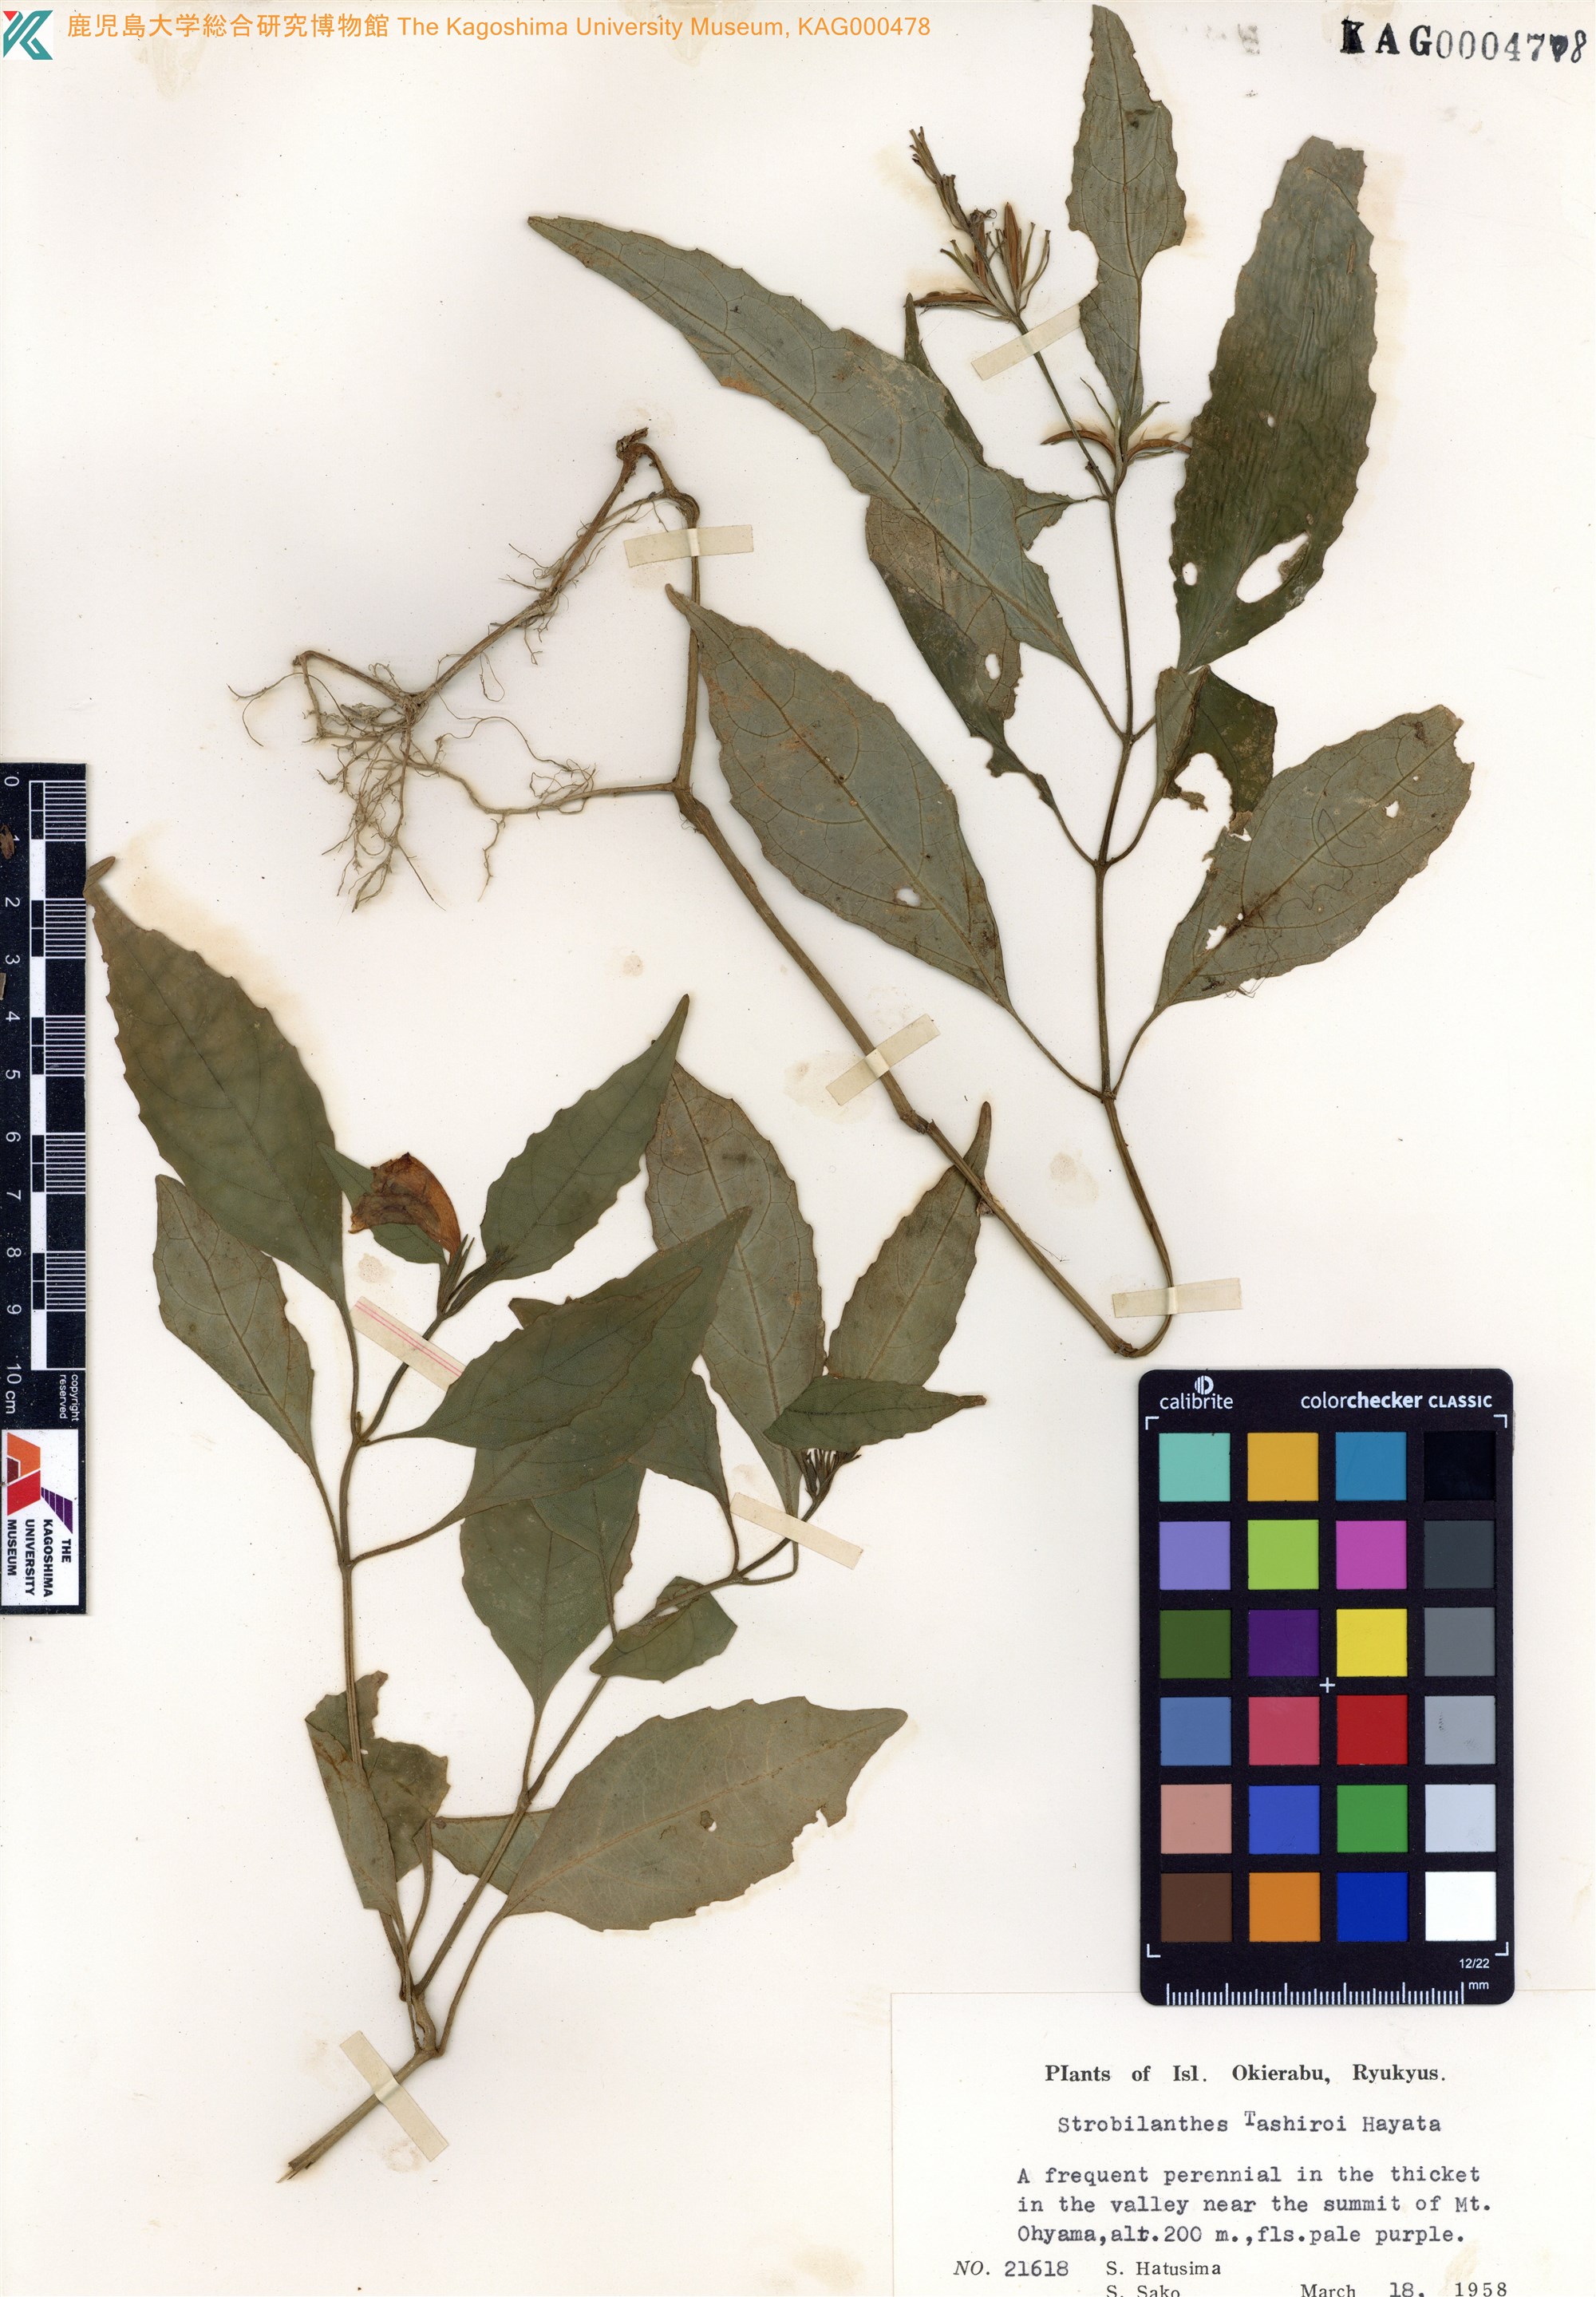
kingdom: Plantae
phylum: Tracheophyta
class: Magnoliopsida
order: Lamiales
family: Acanthaceae
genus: Strobilanthes
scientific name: Strobilanthes flexicaulis
